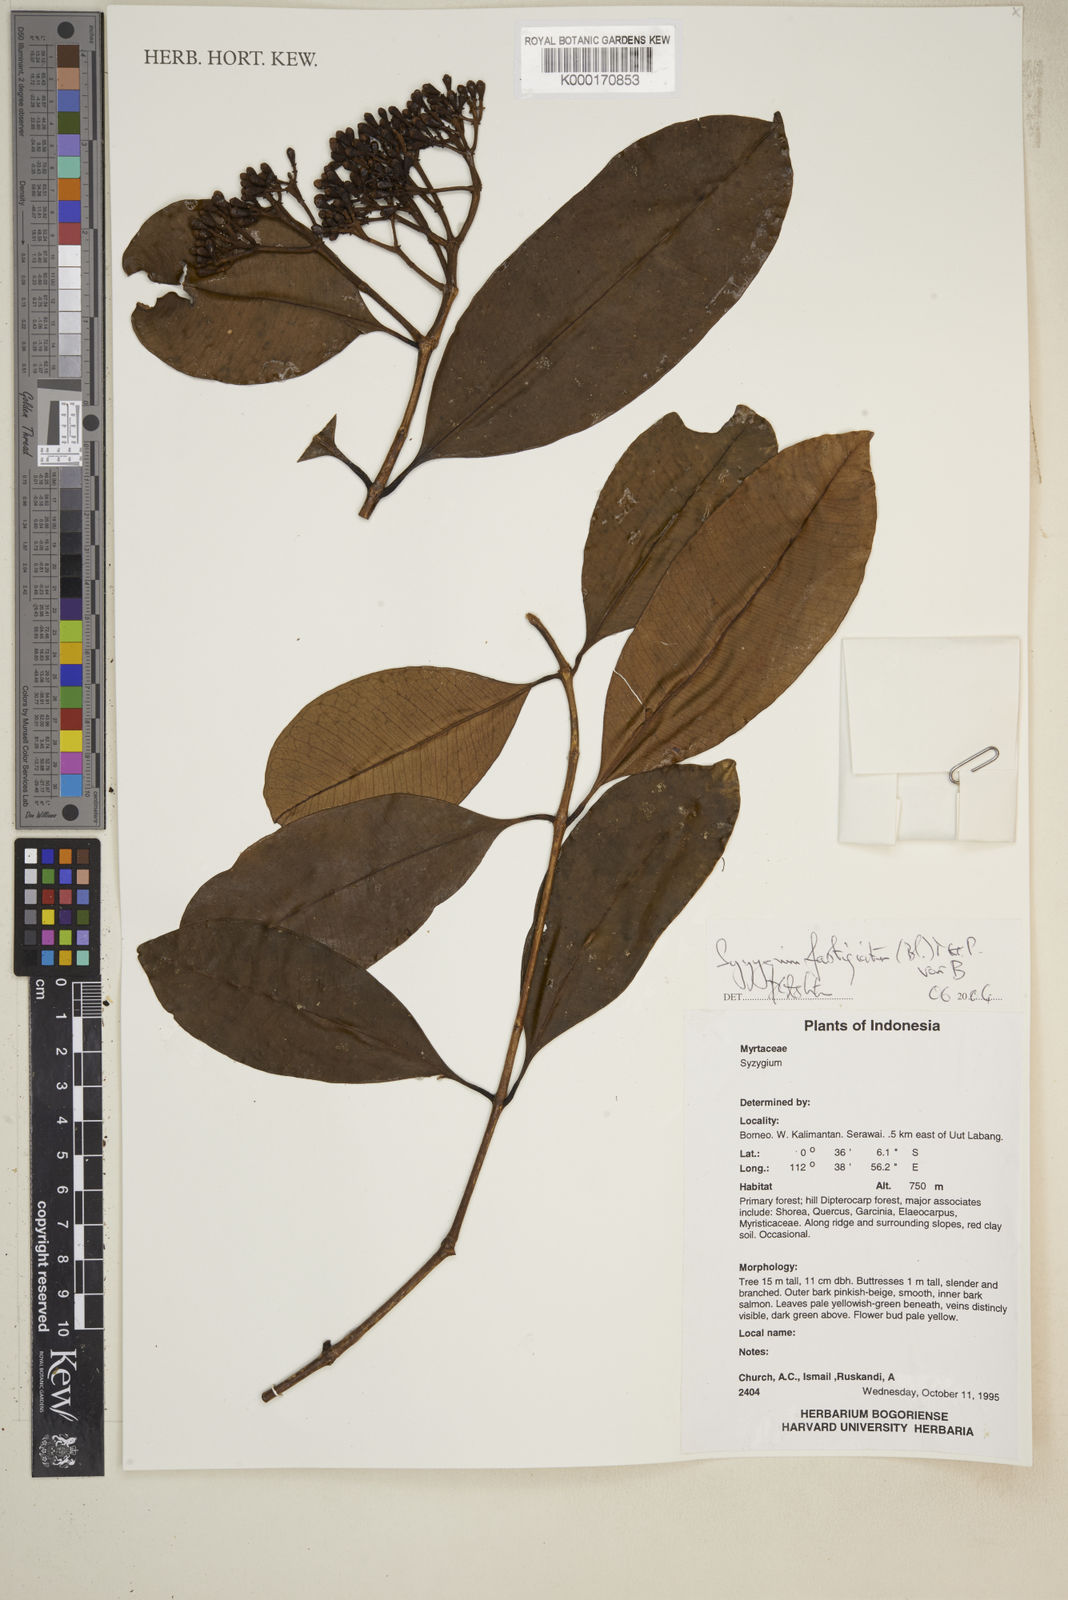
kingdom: Plantae
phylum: Tracheophyta
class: Magnoliopsida
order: Myrtales
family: Myrtaceae
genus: Syzygium
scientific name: Syzygium fastigiatum
